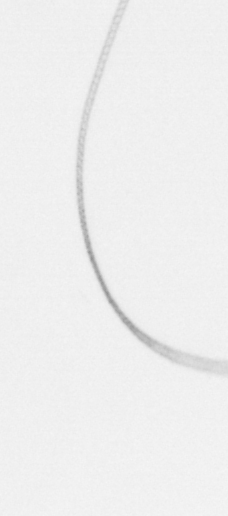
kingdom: Chromista
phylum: Ochrophyta
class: Bacillariophyceae
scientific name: Bacillariophyceae
